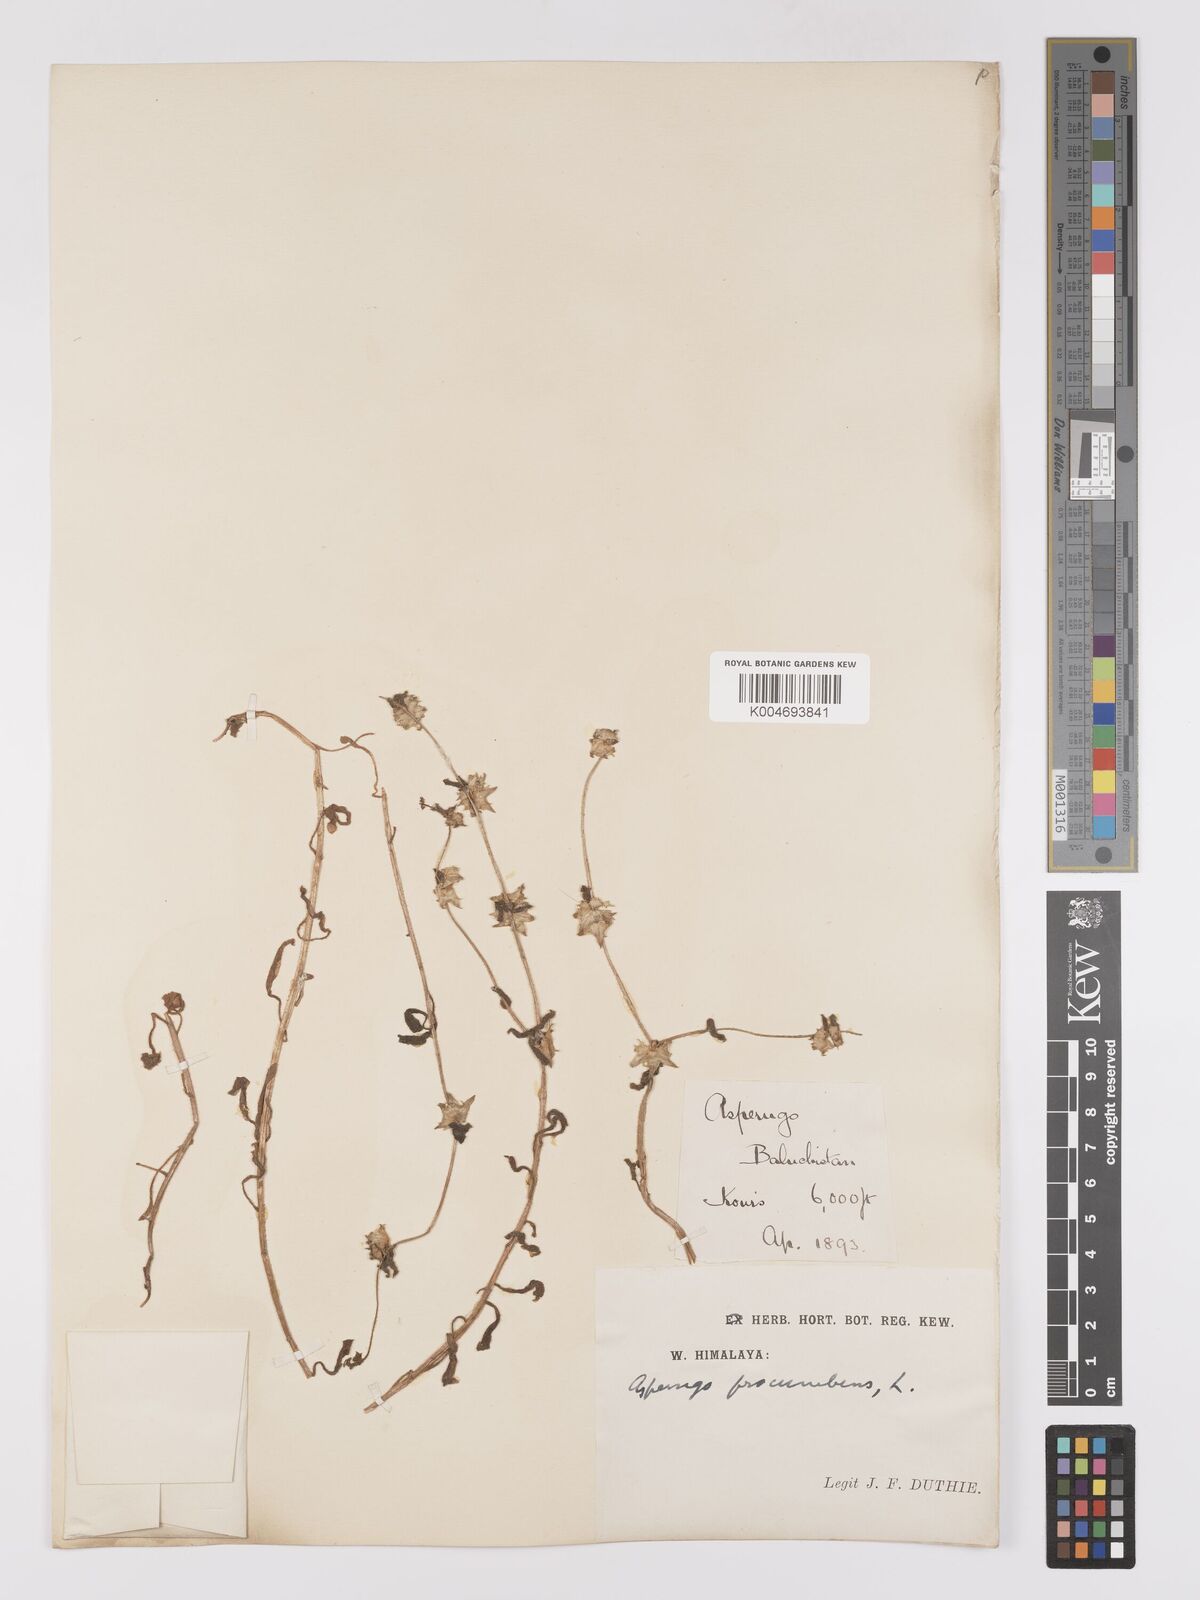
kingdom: Plantae
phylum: Tracheophyta
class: Magnoliopsida
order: Boraginales
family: Boraginaceae
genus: Asperugo
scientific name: Asperugo procumbens
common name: Madwort
